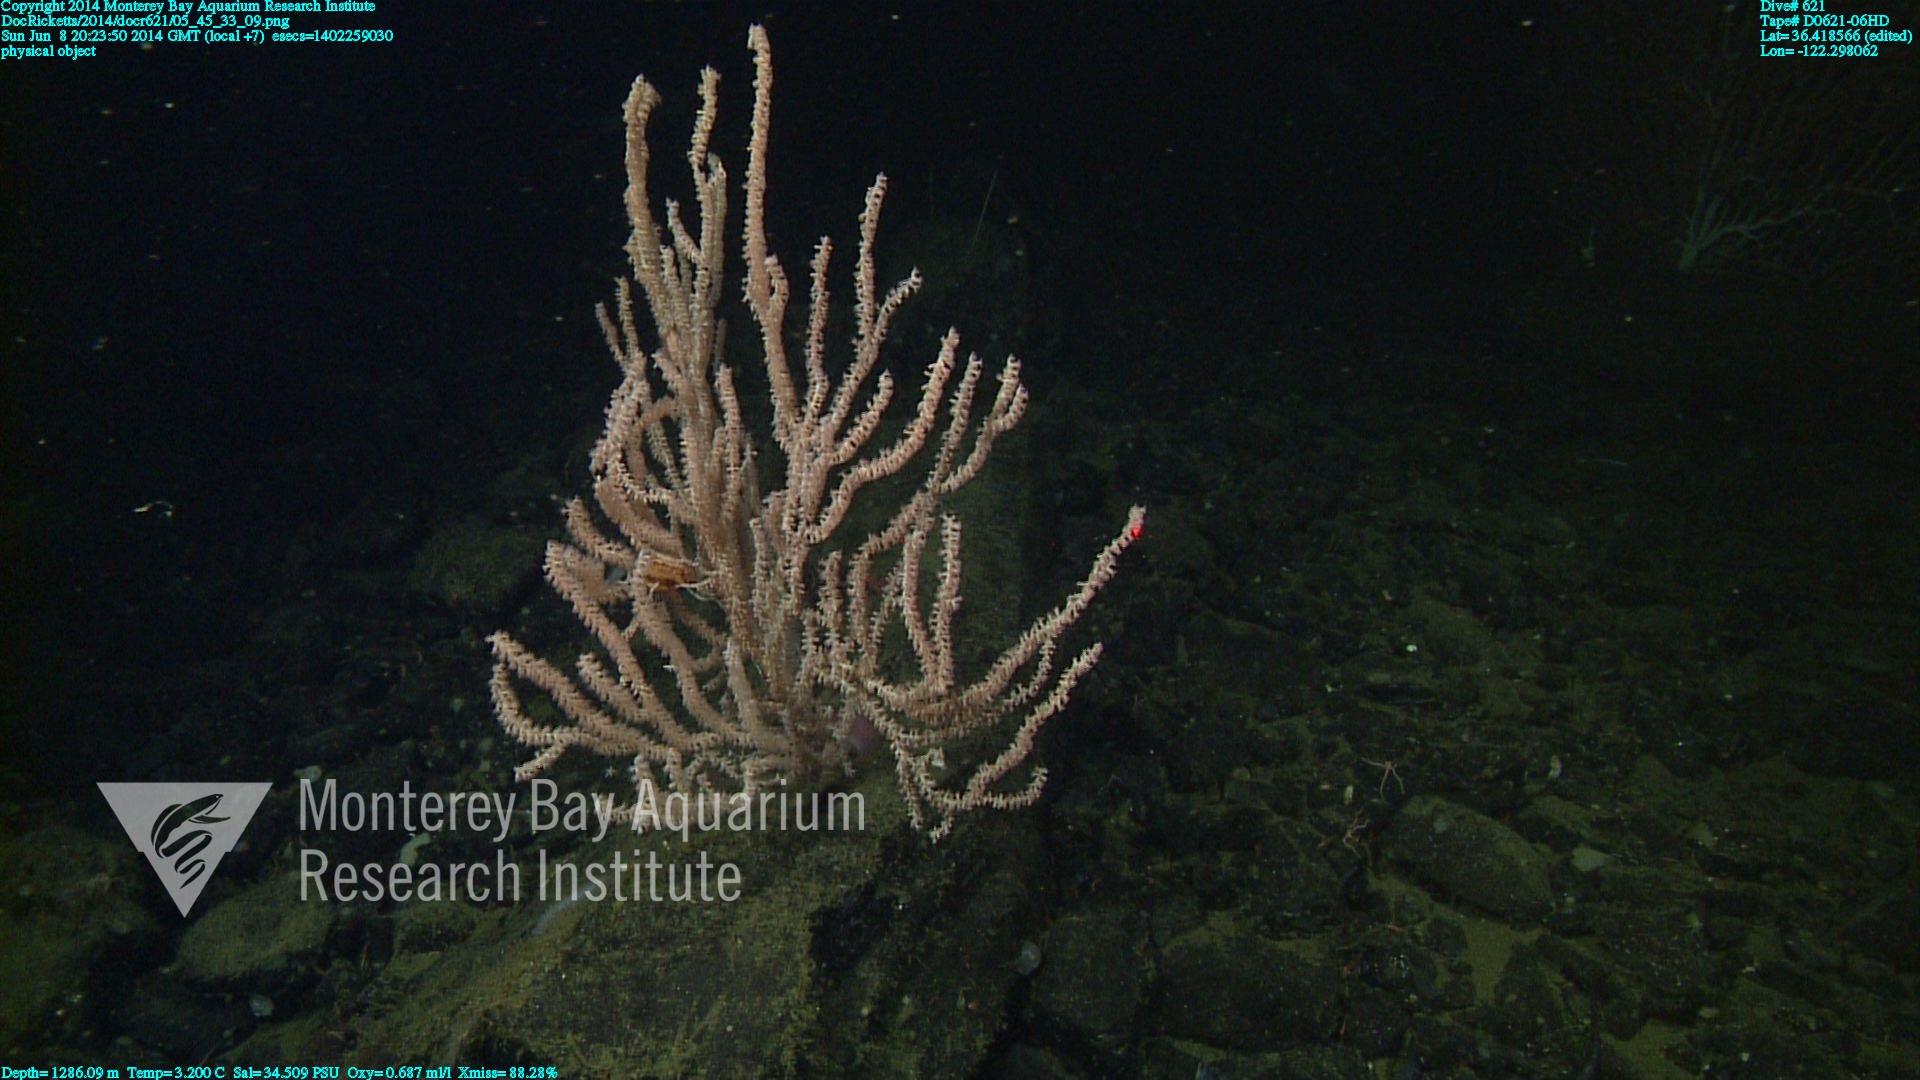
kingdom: Animalia
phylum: Cnidaria
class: Anthozoa
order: Scleralcyonacea
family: Keratoisididae
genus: Keratoisis
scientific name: Keratoisis
